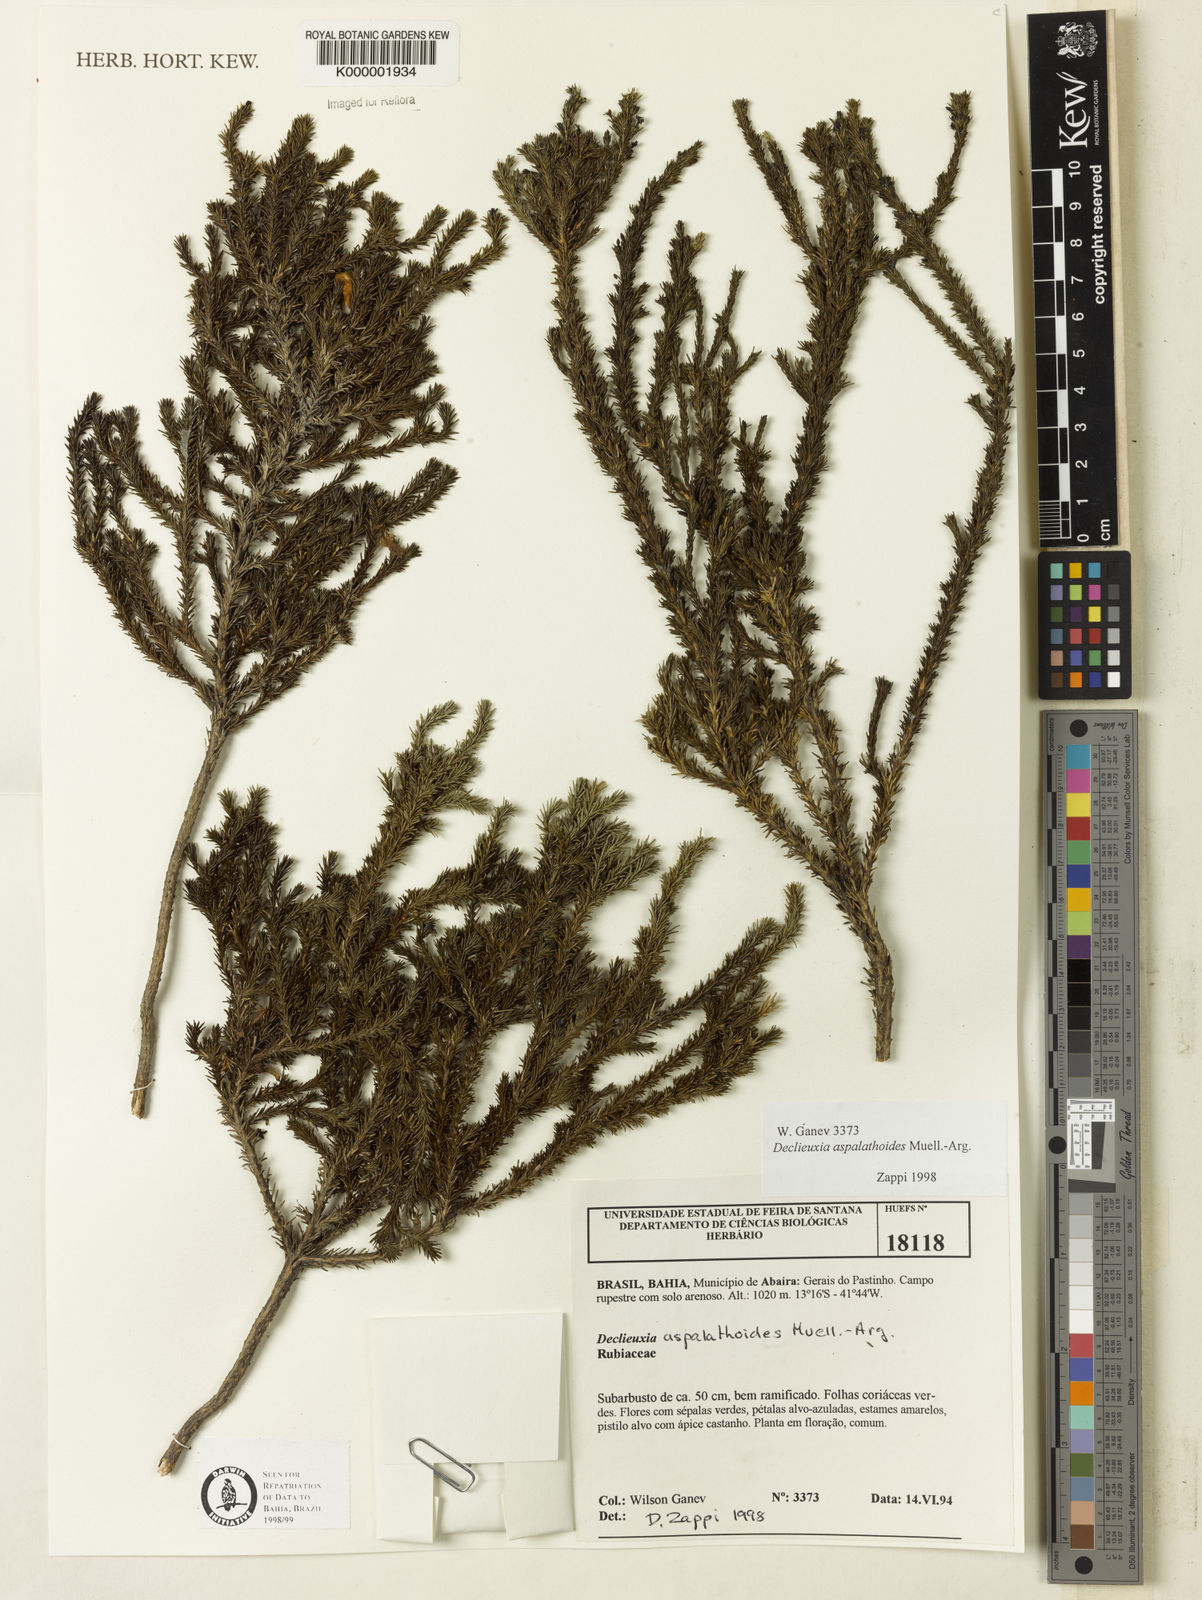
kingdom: Plantae
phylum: Tracheophyta
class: Magnoliopsida
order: Gentianales
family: Rubiaceae
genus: Declieuxia
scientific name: Declieuxia aspalathoides
